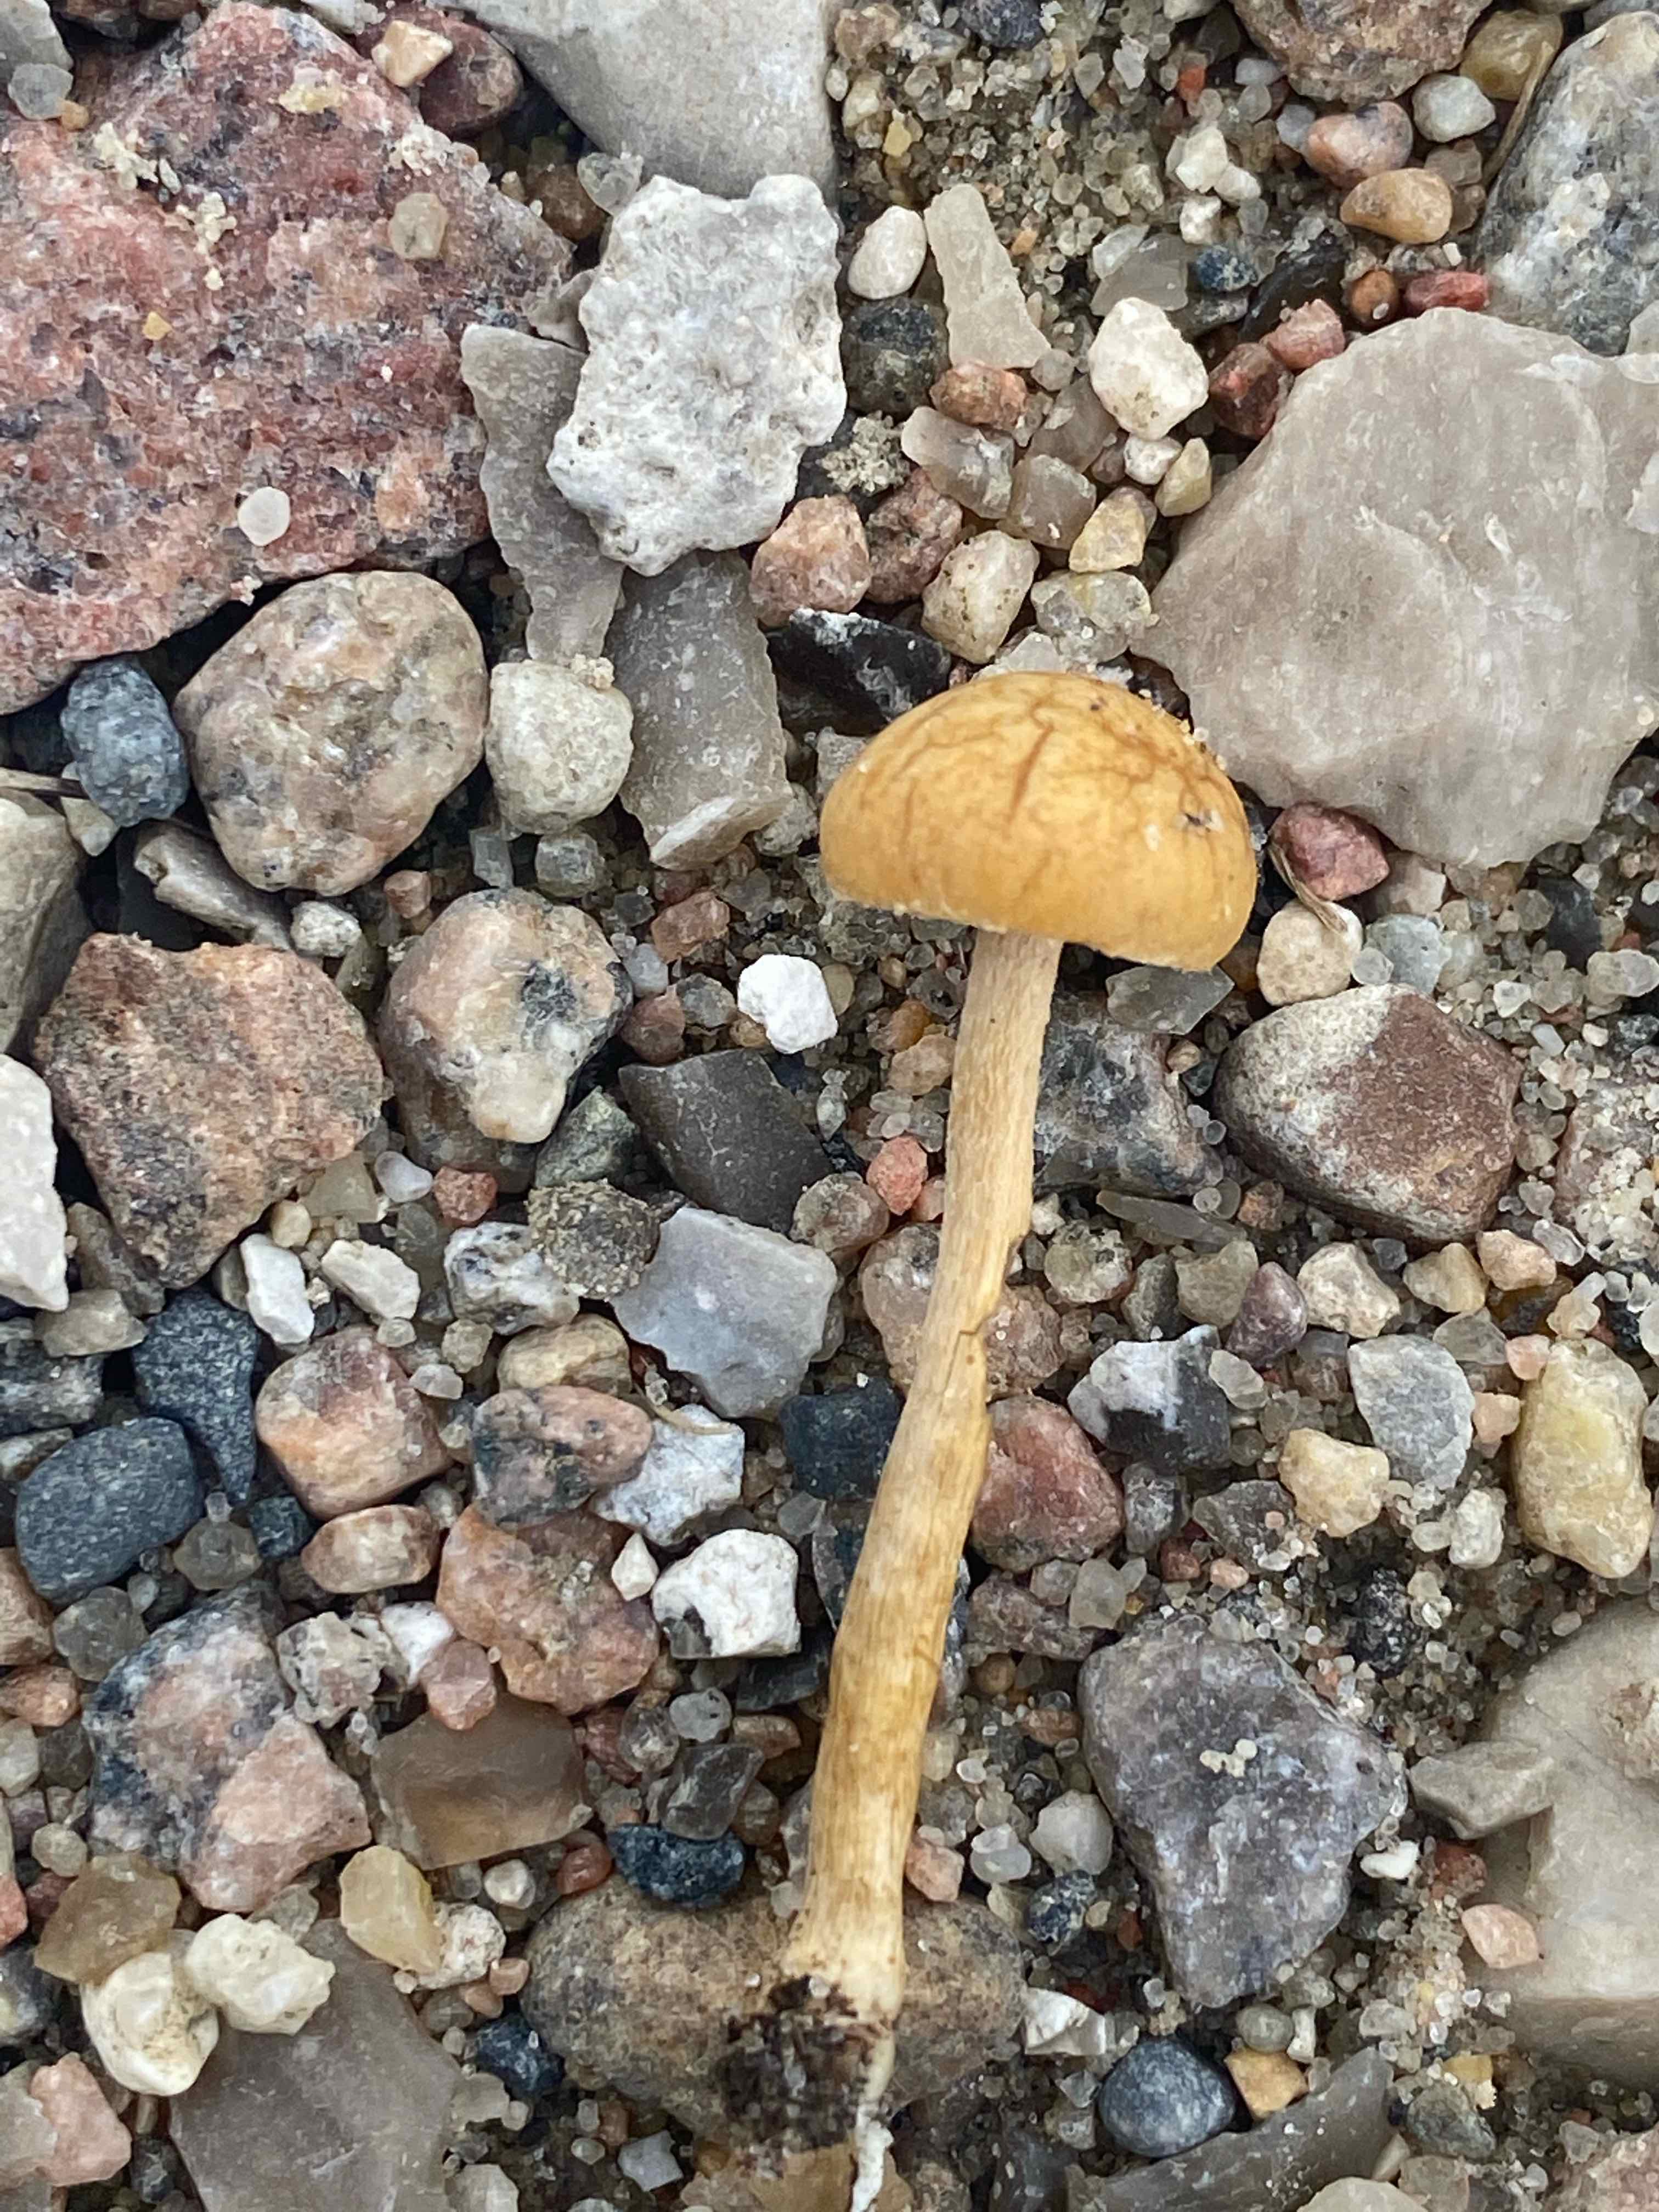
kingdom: Fungi
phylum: Basidiomycota
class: Agaricomycetes
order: Agaricales
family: Strophariaceae
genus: Agrocybe
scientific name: Agrocybe pediades
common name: almindelig agerhat
